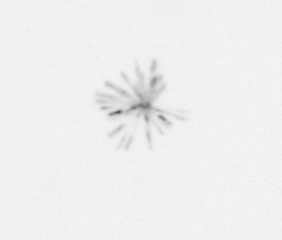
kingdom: Chromista
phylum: Ochrophyta
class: Bacillariophyceae
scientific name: Bacillariophyceae
